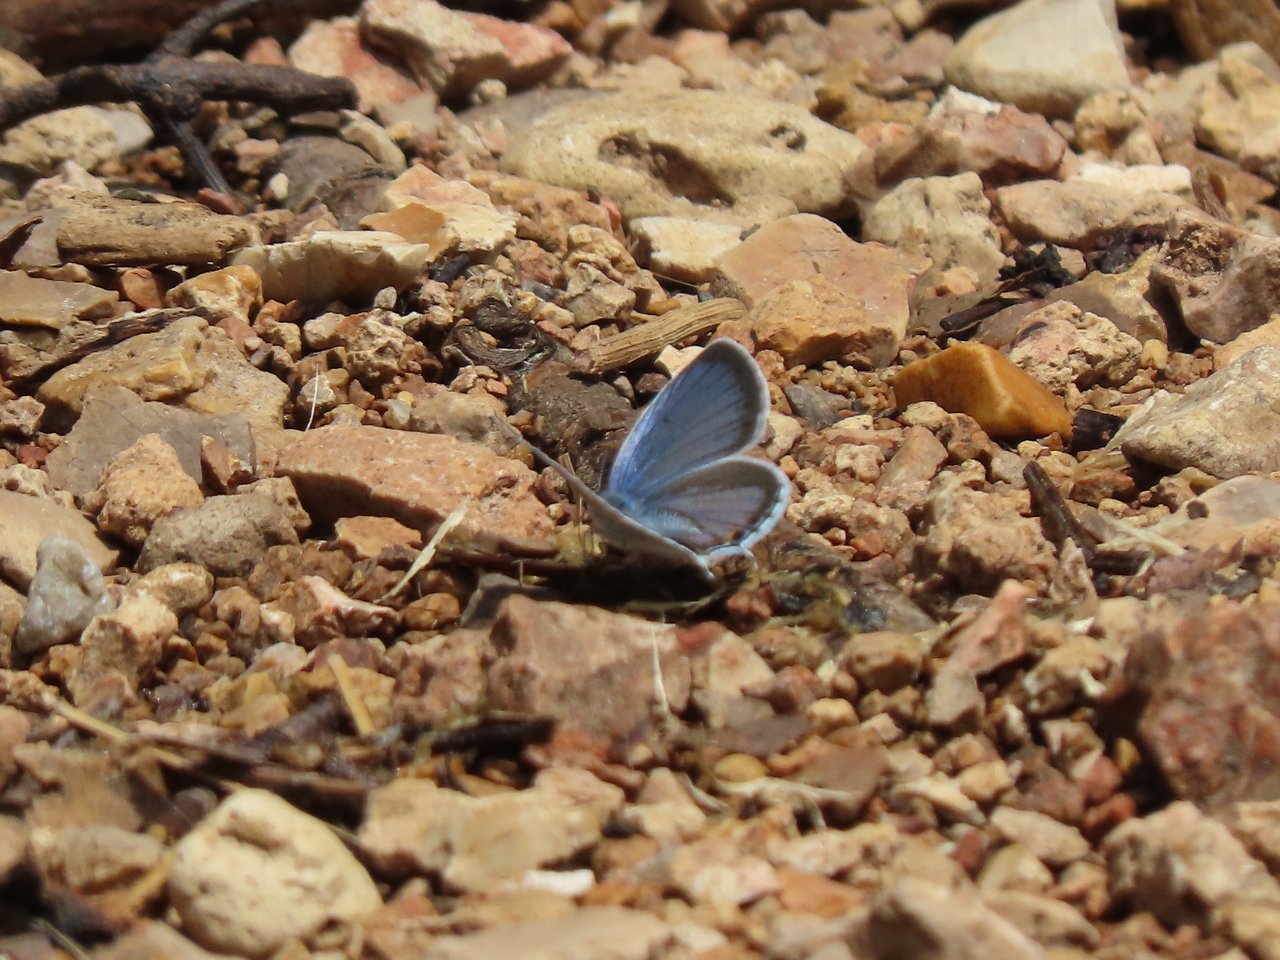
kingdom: Animalia
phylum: Arthropoda
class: Insecta
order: Lepidoptera
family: Lycaenidae
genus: Elkalyce
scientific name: Elkalyce comyntas
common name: Eastern Tailed-Blue
